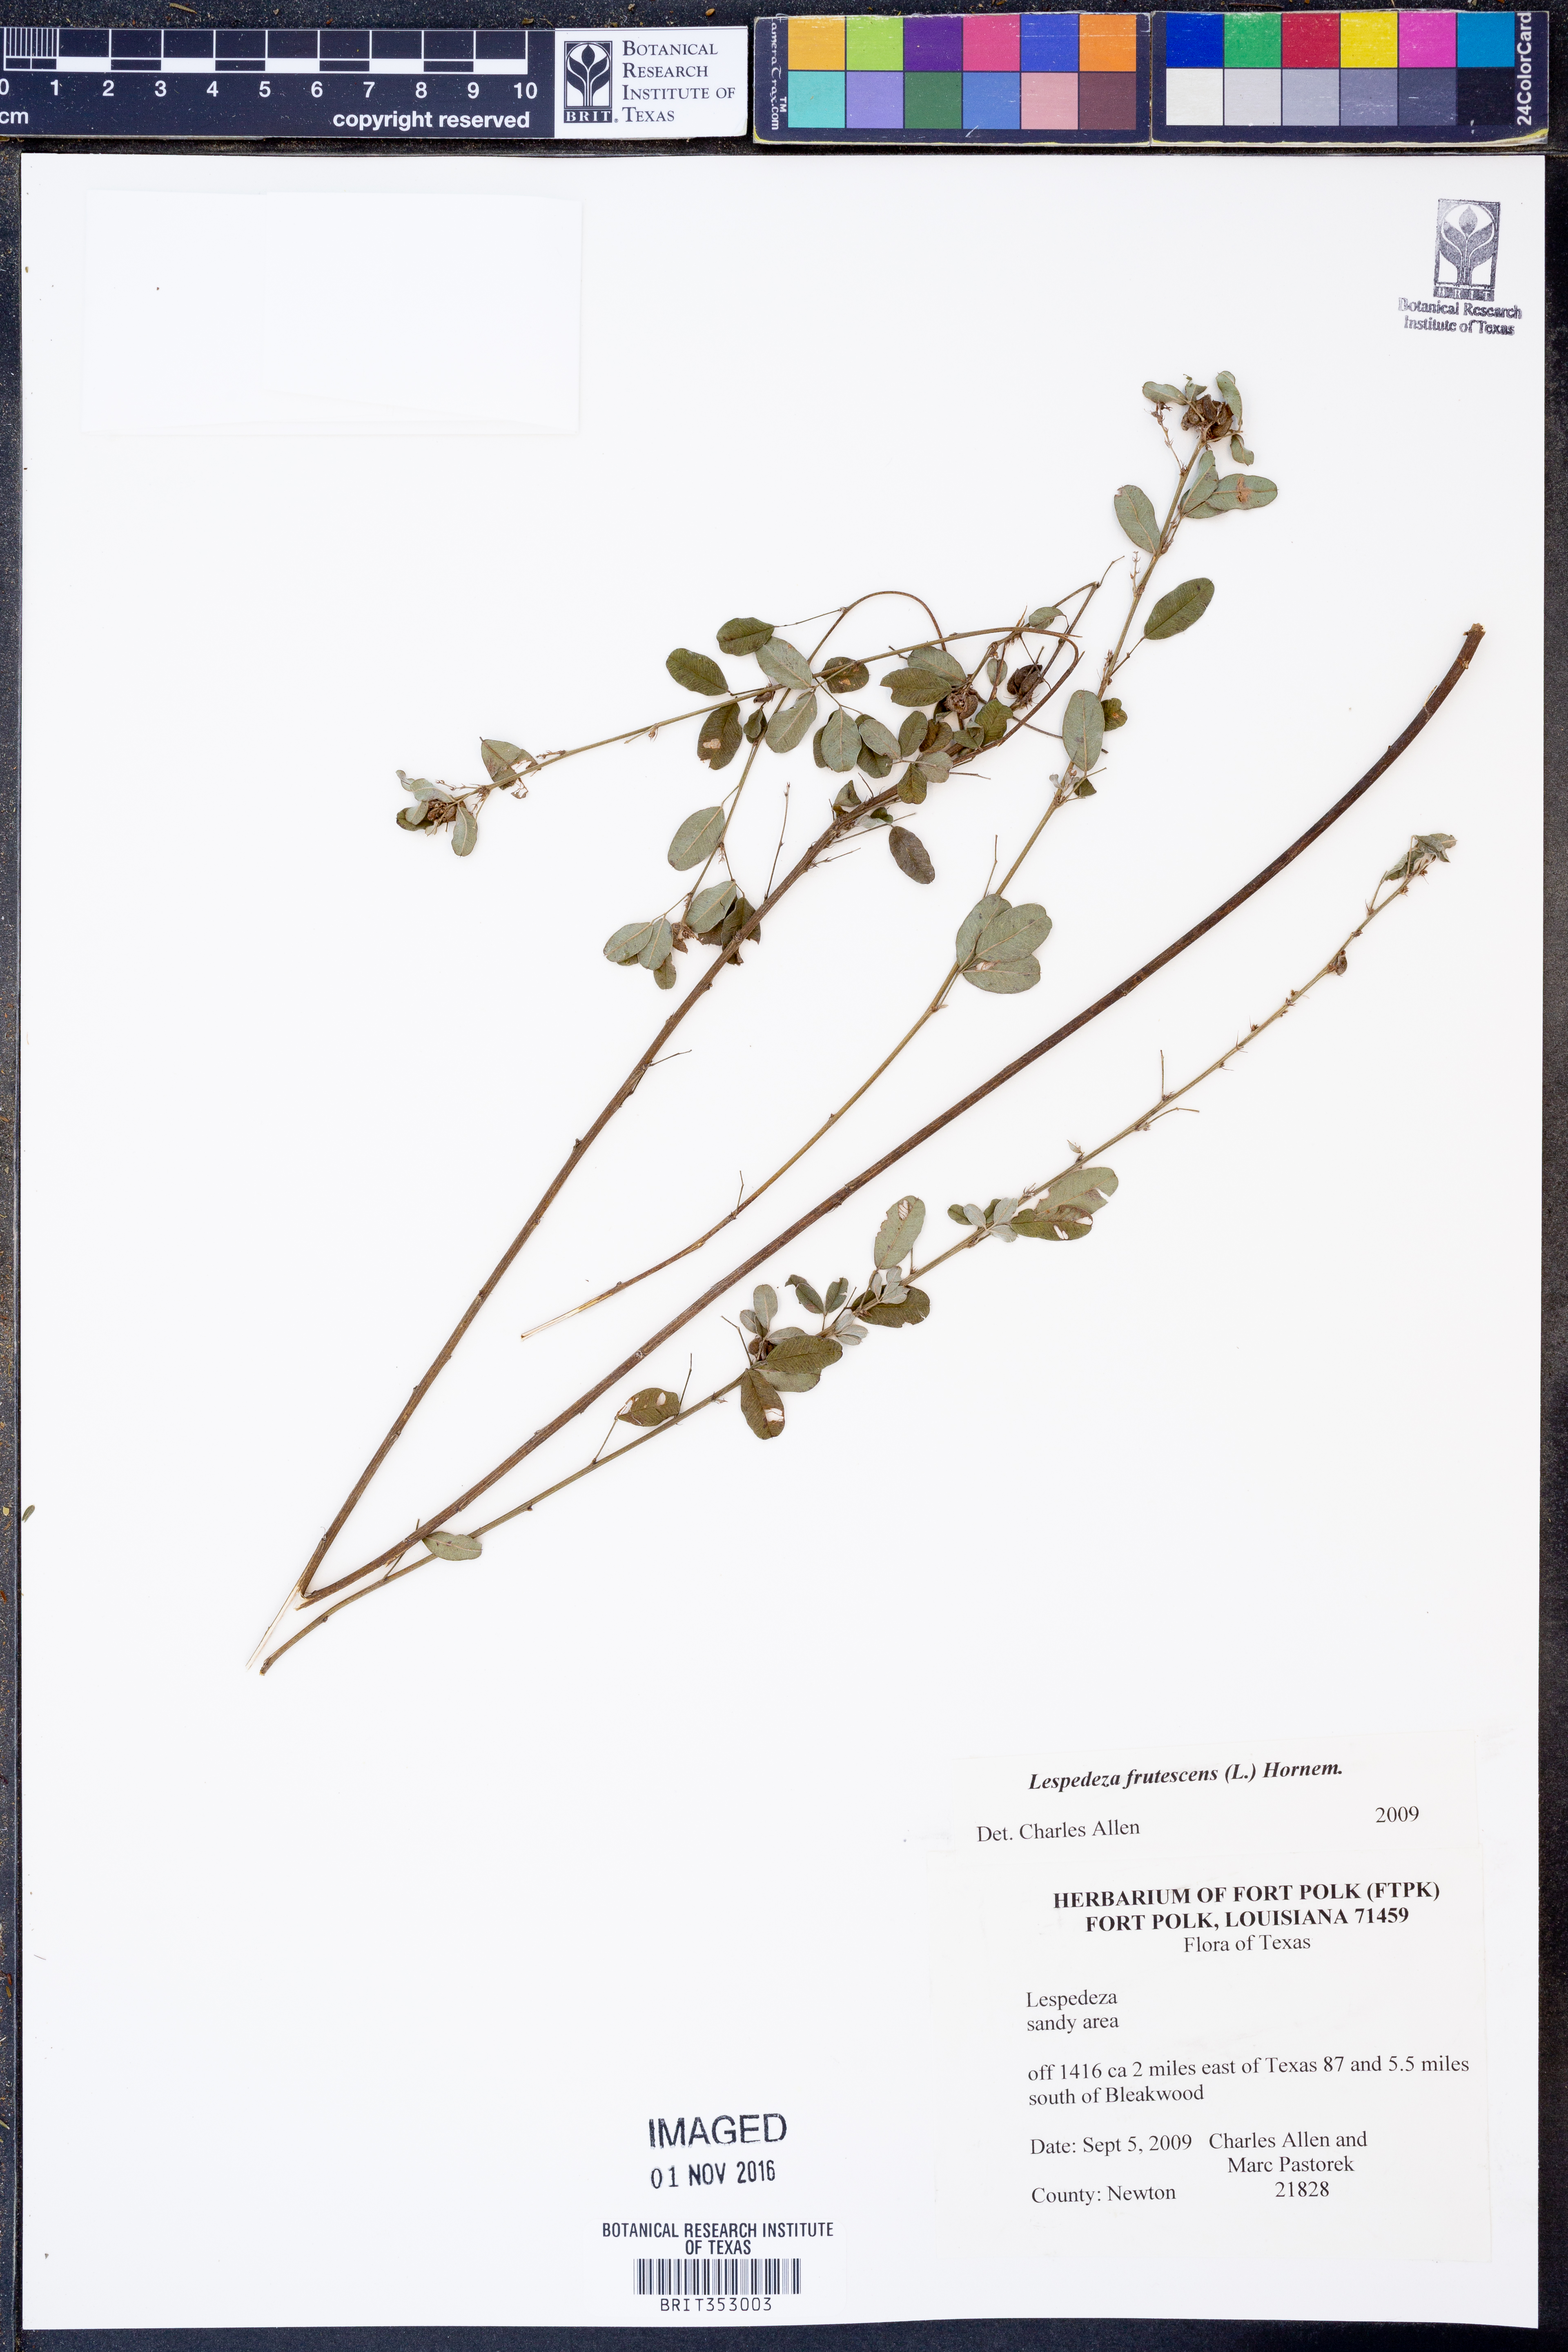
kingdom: Plantae
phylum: Tracheophyta
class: Magnoliopsida
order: Fabales
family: Fabaceae
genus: Lespedeza
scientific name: Lespedeza violacea
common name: Wand bush-clover
